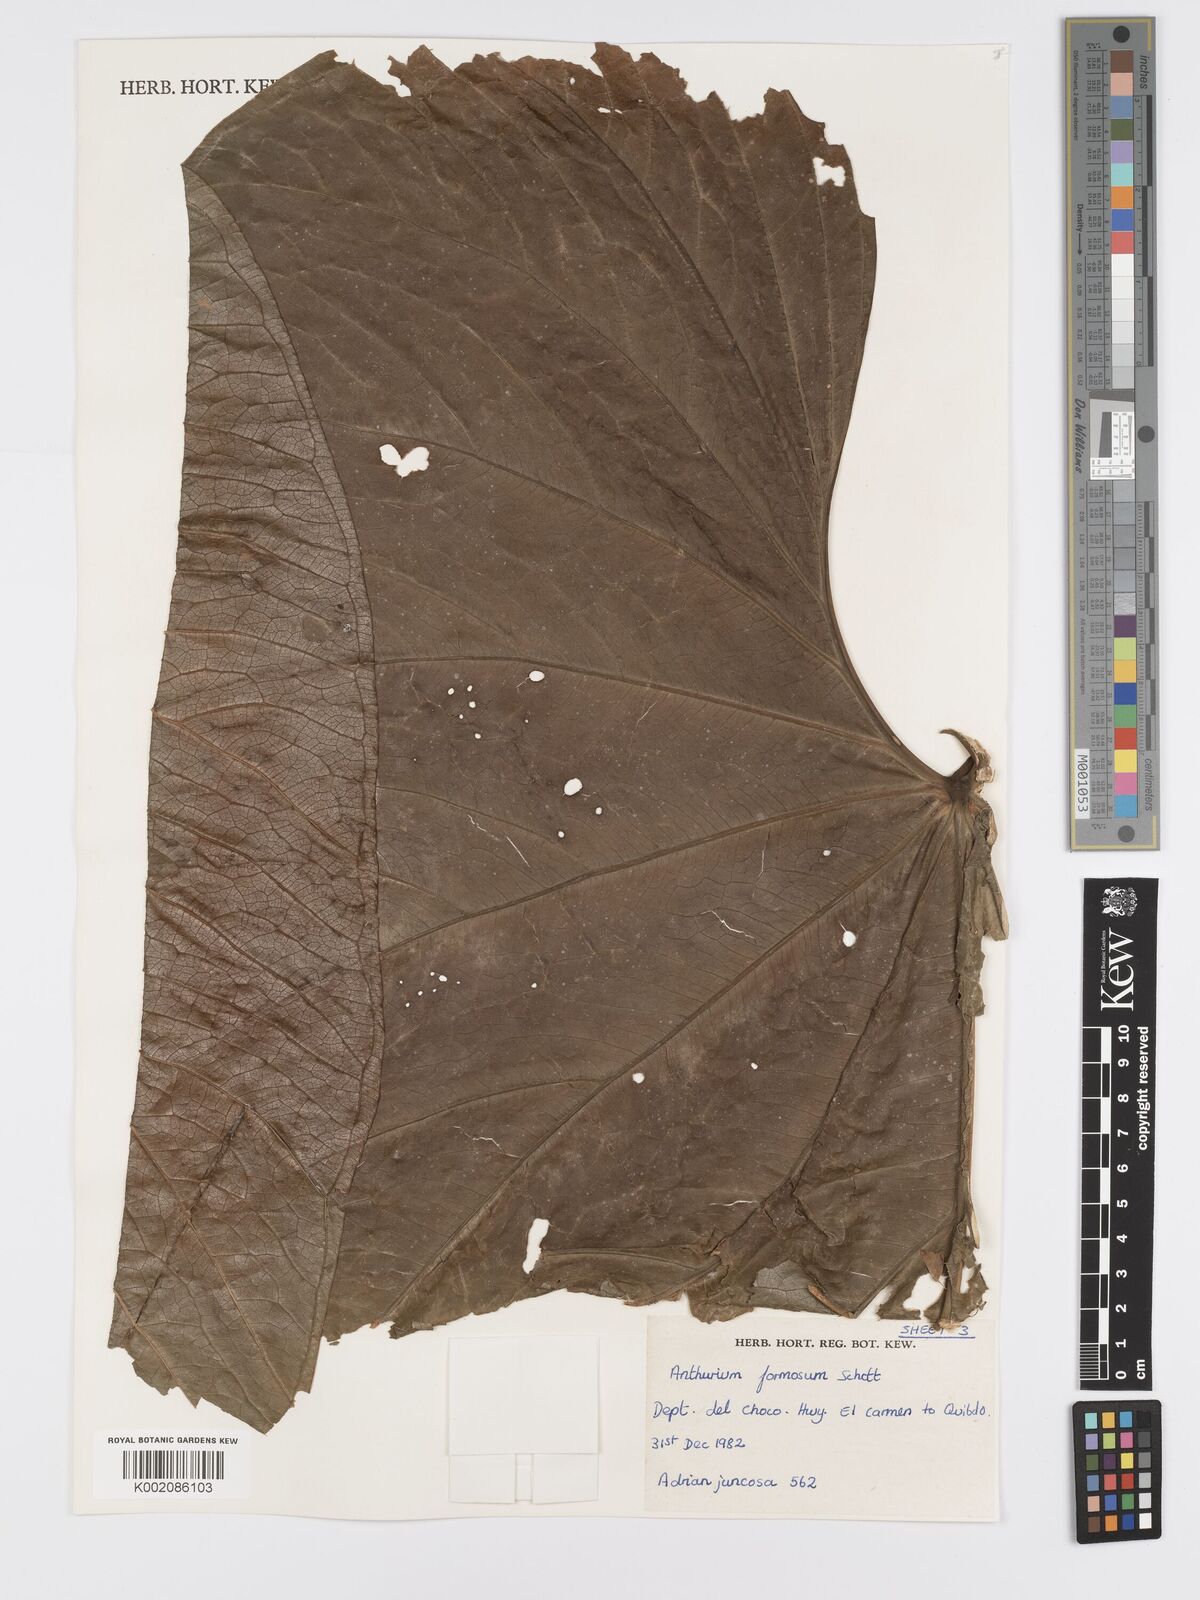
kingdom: Plantae
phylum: Tracheophyta
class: Liliopsida
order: Alismatales
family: Araceae
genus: Anthurium
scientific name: Anthurium formosum
